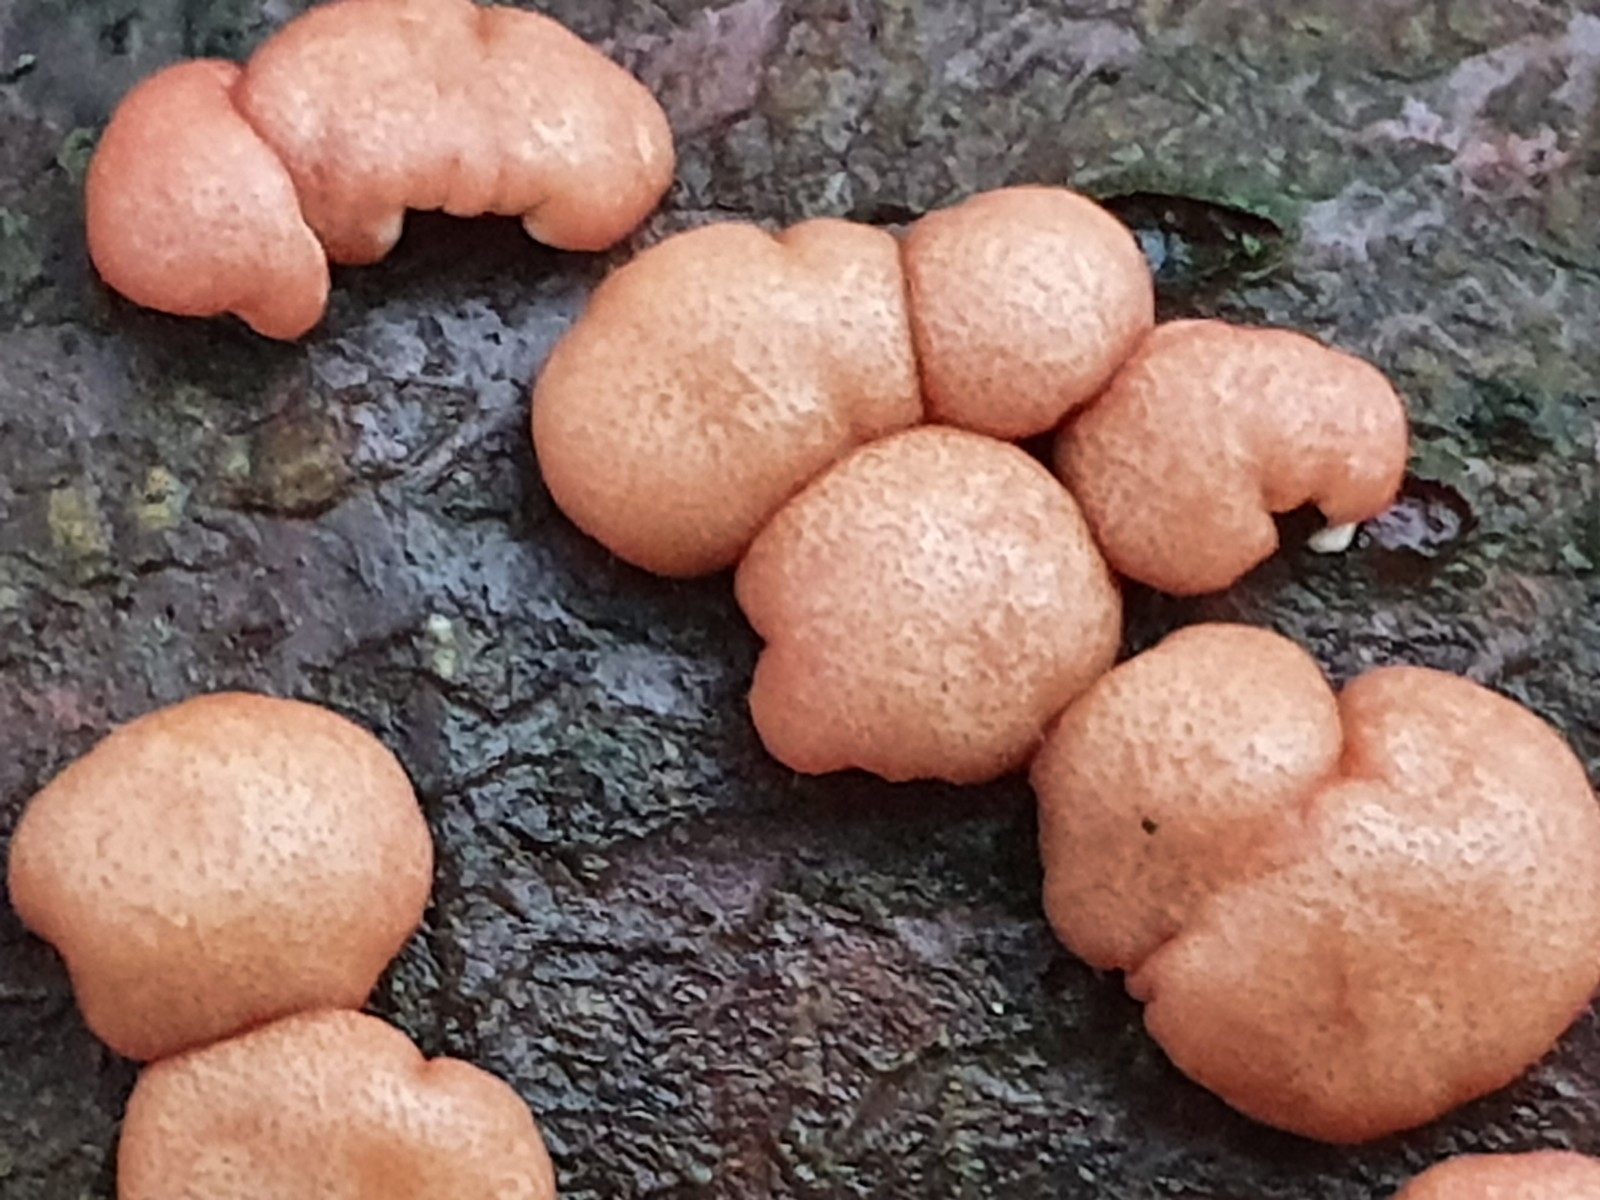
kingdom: Fungi
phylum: Ascomycota
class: Sordariomycetes
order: Hypocreales
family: Hypocreaceae
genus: Trichoderma
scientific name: Trichoderma europaeum
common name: rosabrun kødkerne
